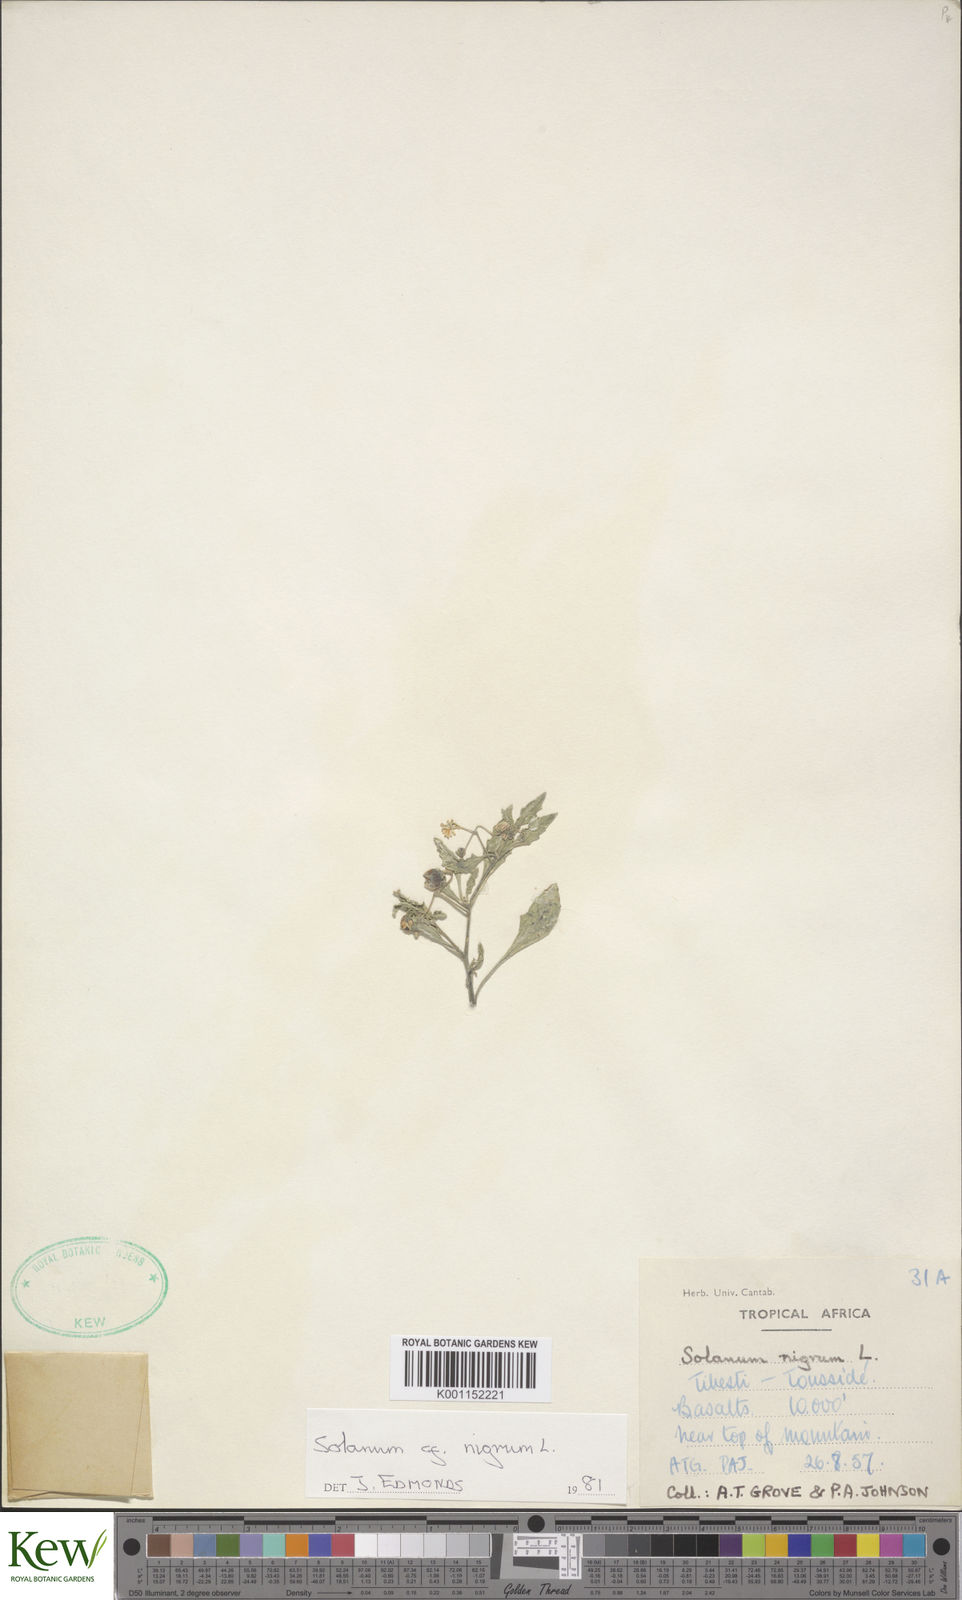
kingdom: Plantae
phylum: Tracheophyta
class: Magnoliopsida
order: Solanales
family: Solanaceae
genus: Solanum
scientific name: Solanum nigrum
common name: Black nightshade
